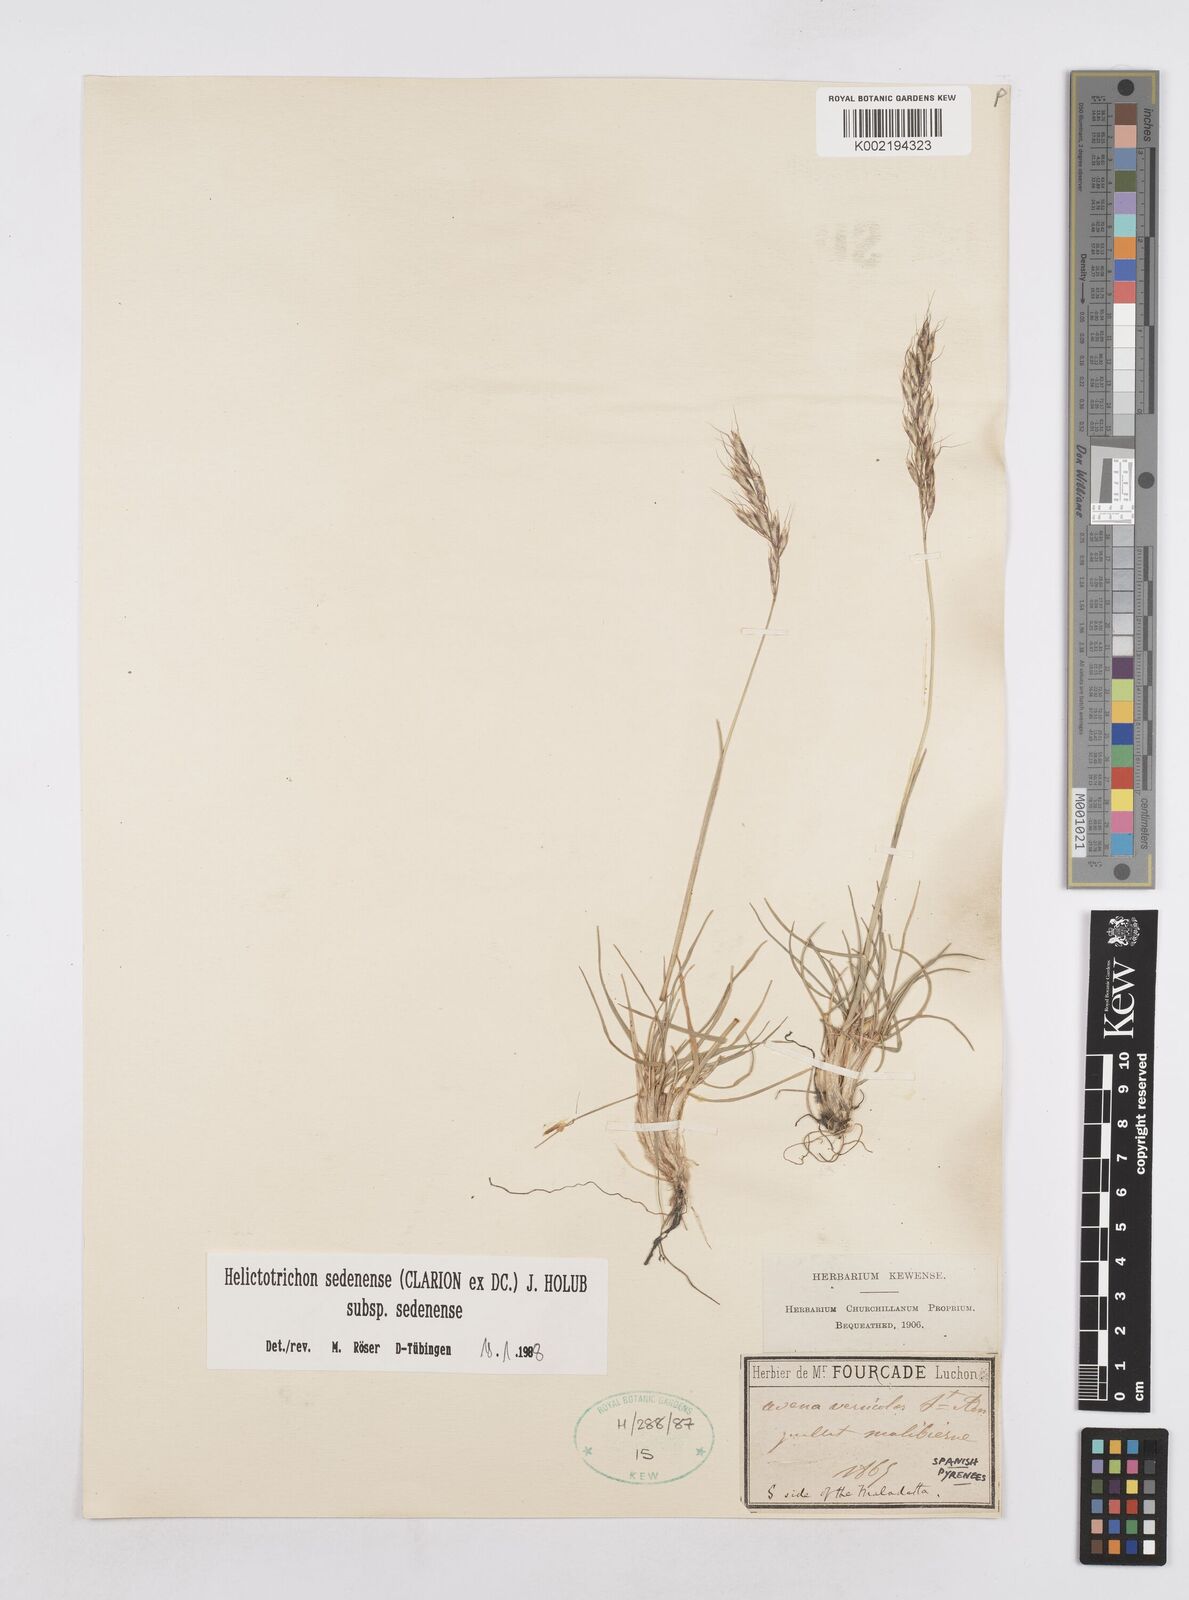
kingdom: Plantae
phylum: Tracheophyta
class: Liliopsida
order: Poales
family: Poaceae
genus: Helictotrichon
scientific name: Helictotrichon sedenense
